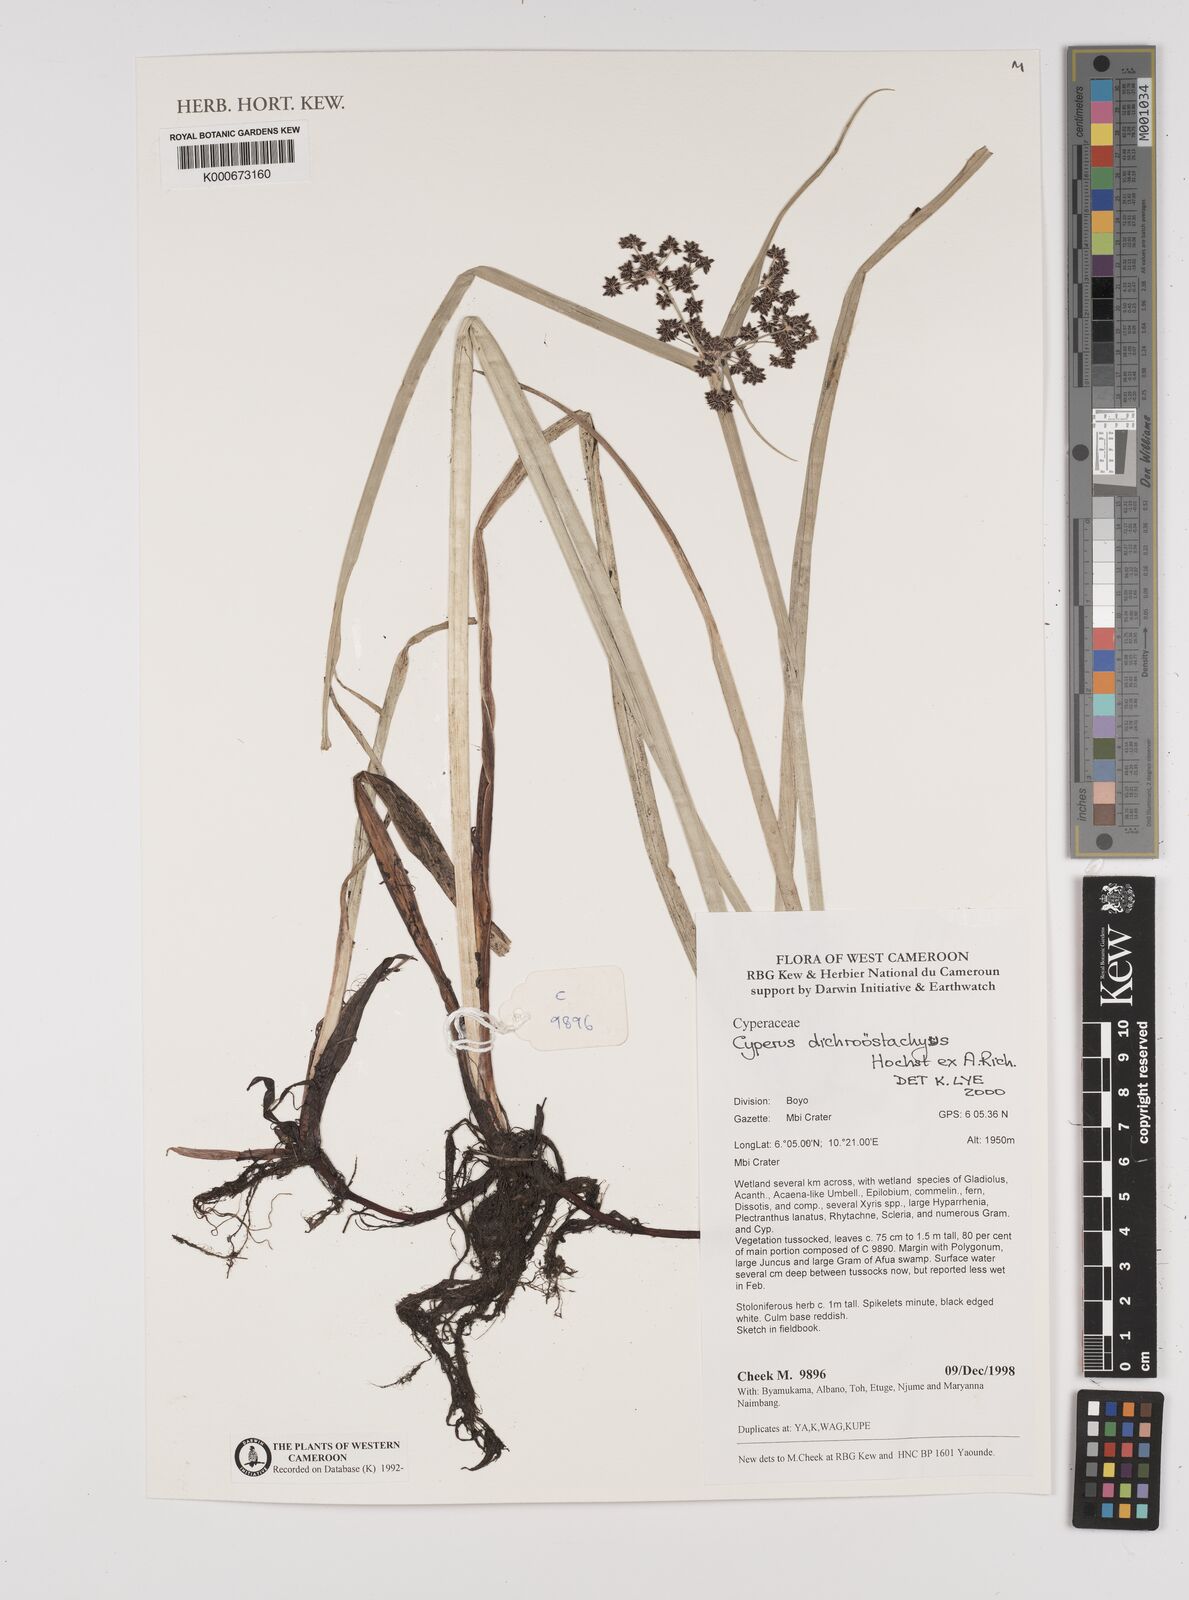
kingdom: Plantae
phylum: Tracheophyta
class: Liliopsida
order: Poales
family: Cyperaceae
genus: Cyperus
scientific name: Cyperus
